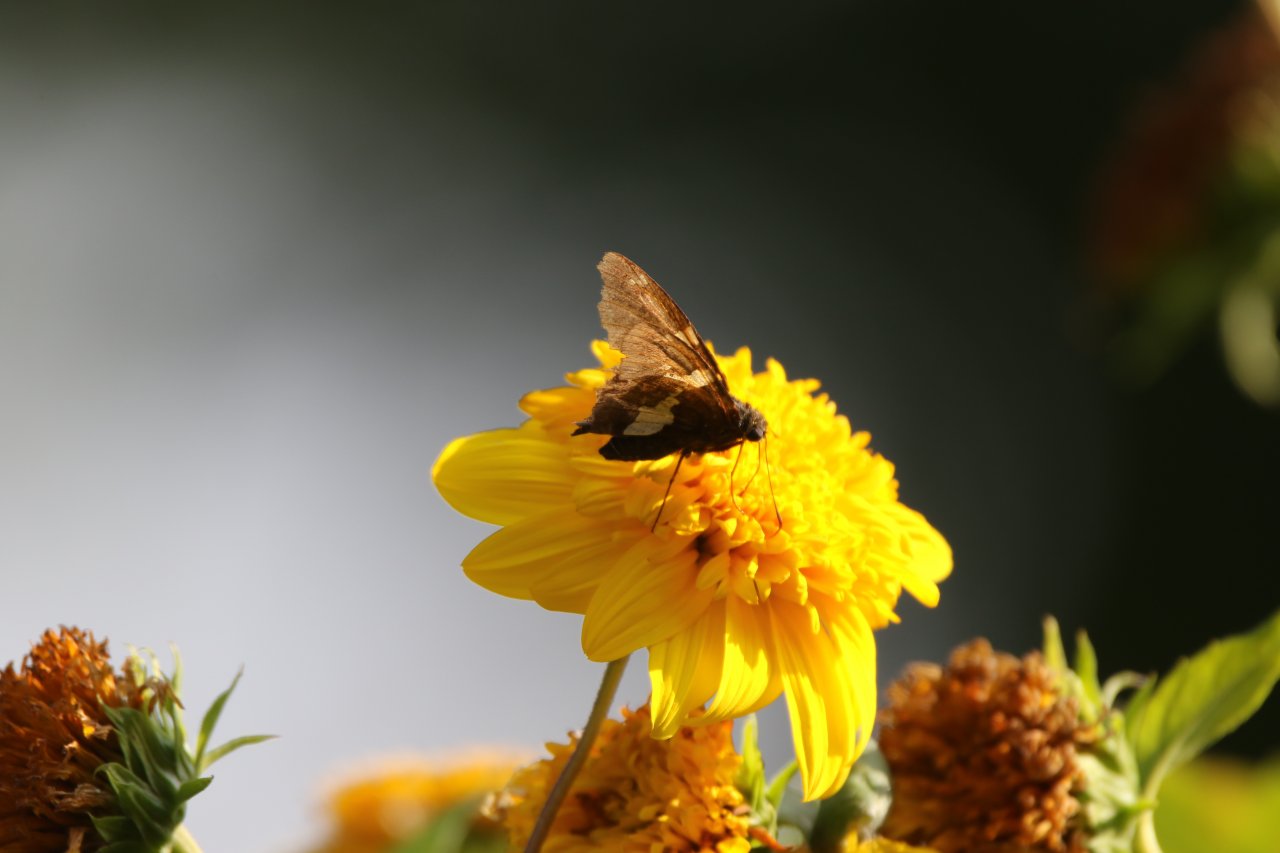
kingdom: Animalia
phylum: Arthropoda
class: Insecta
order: Lepidoptera
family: Hesperiidae
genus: Epargyreus
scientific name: Epargyreus clarus
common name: Silver-spotted Skipper
